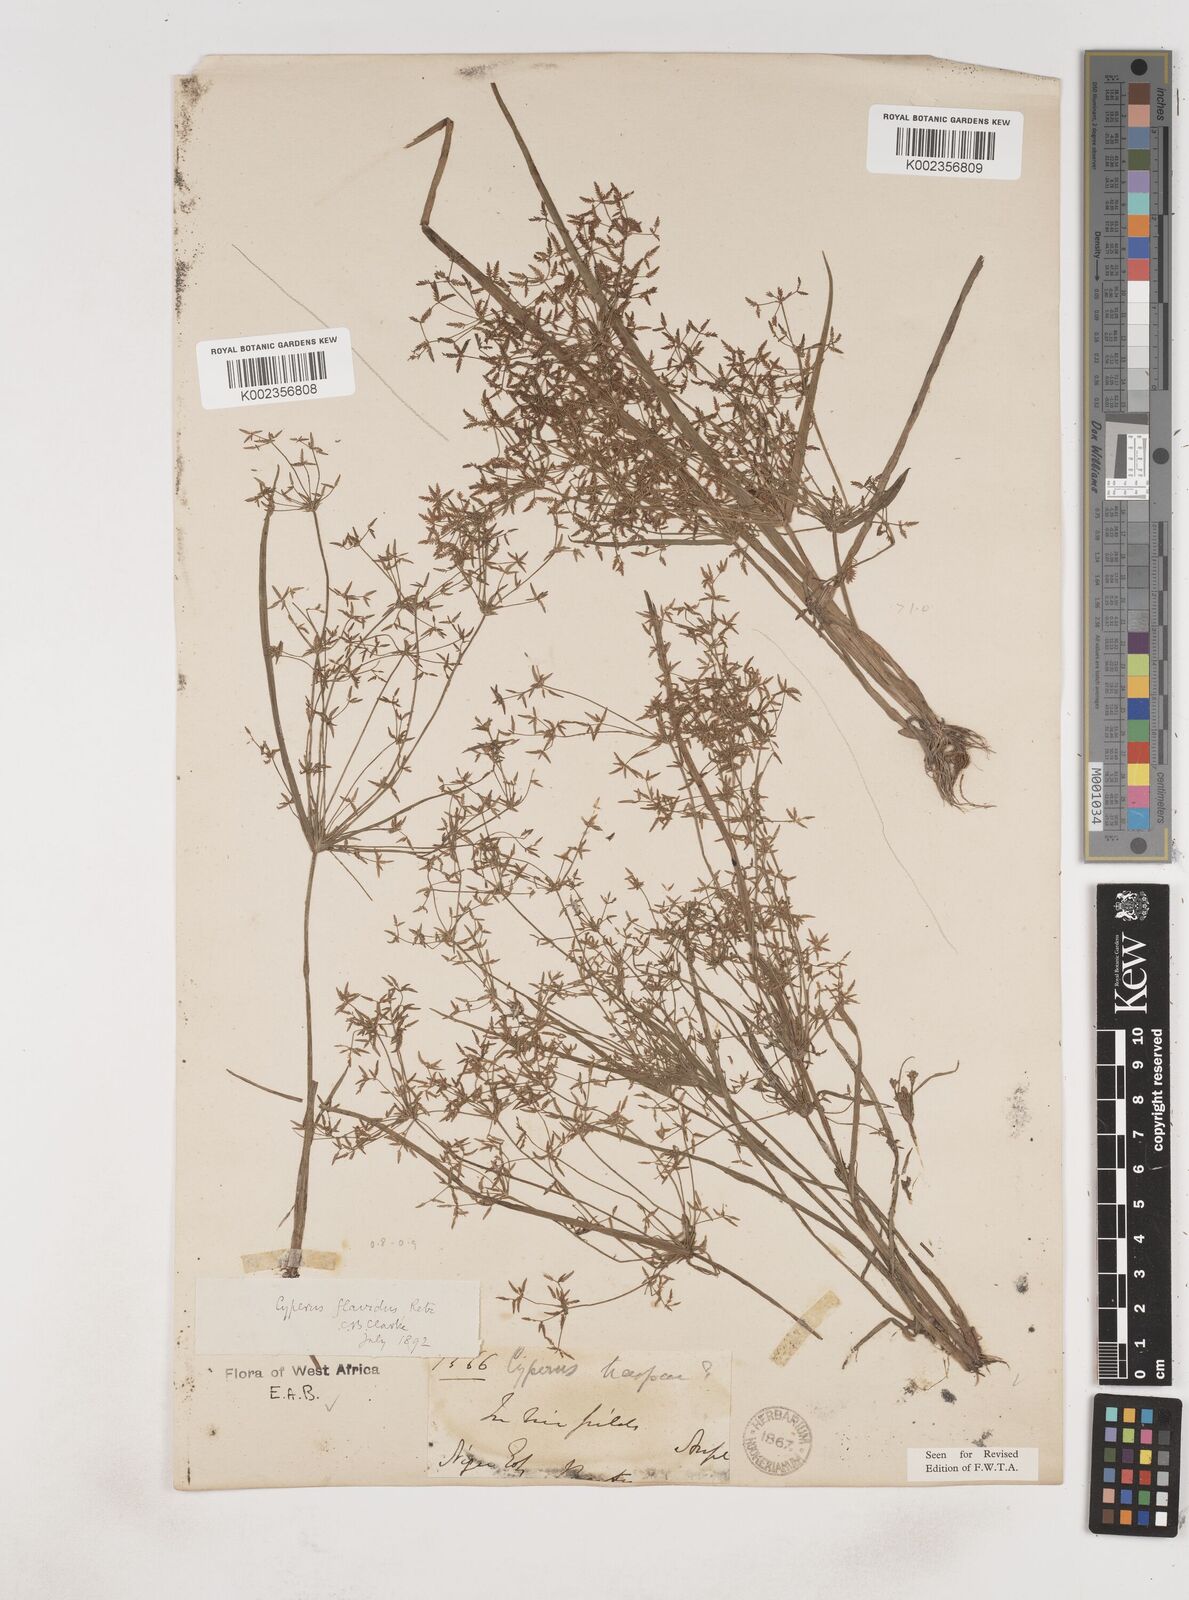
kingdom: Plantae
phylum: Tracheophyta
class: Liliopsida
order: Poales
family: Cyperaceae
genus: Cyperus
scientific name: Cyperus tenuispica
